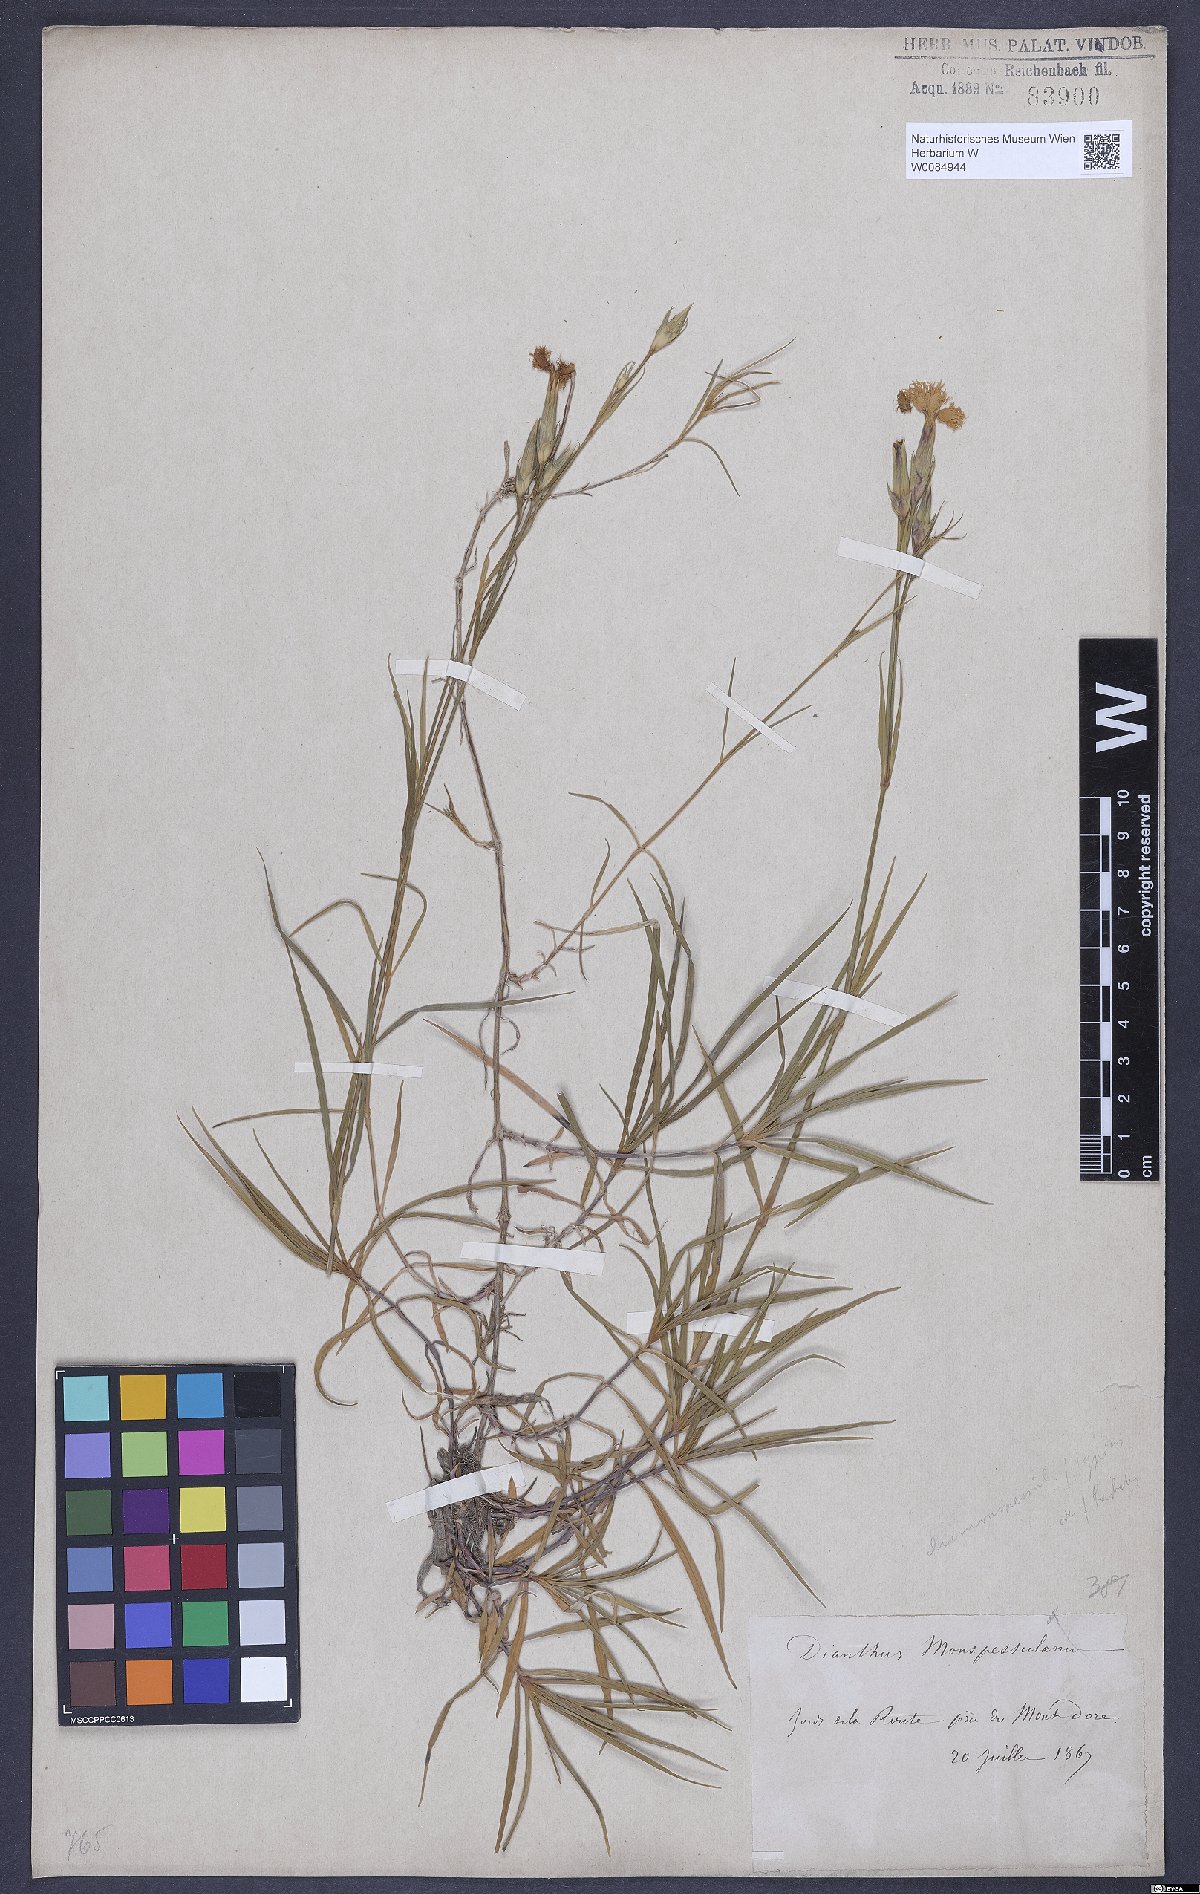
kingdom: Plantae
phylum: Tracheophyta
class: Magnoliopsida
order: Caryophyllales
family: Caryophyllaceae
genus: Dianthus
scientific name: Dianthus hyssopifolius
